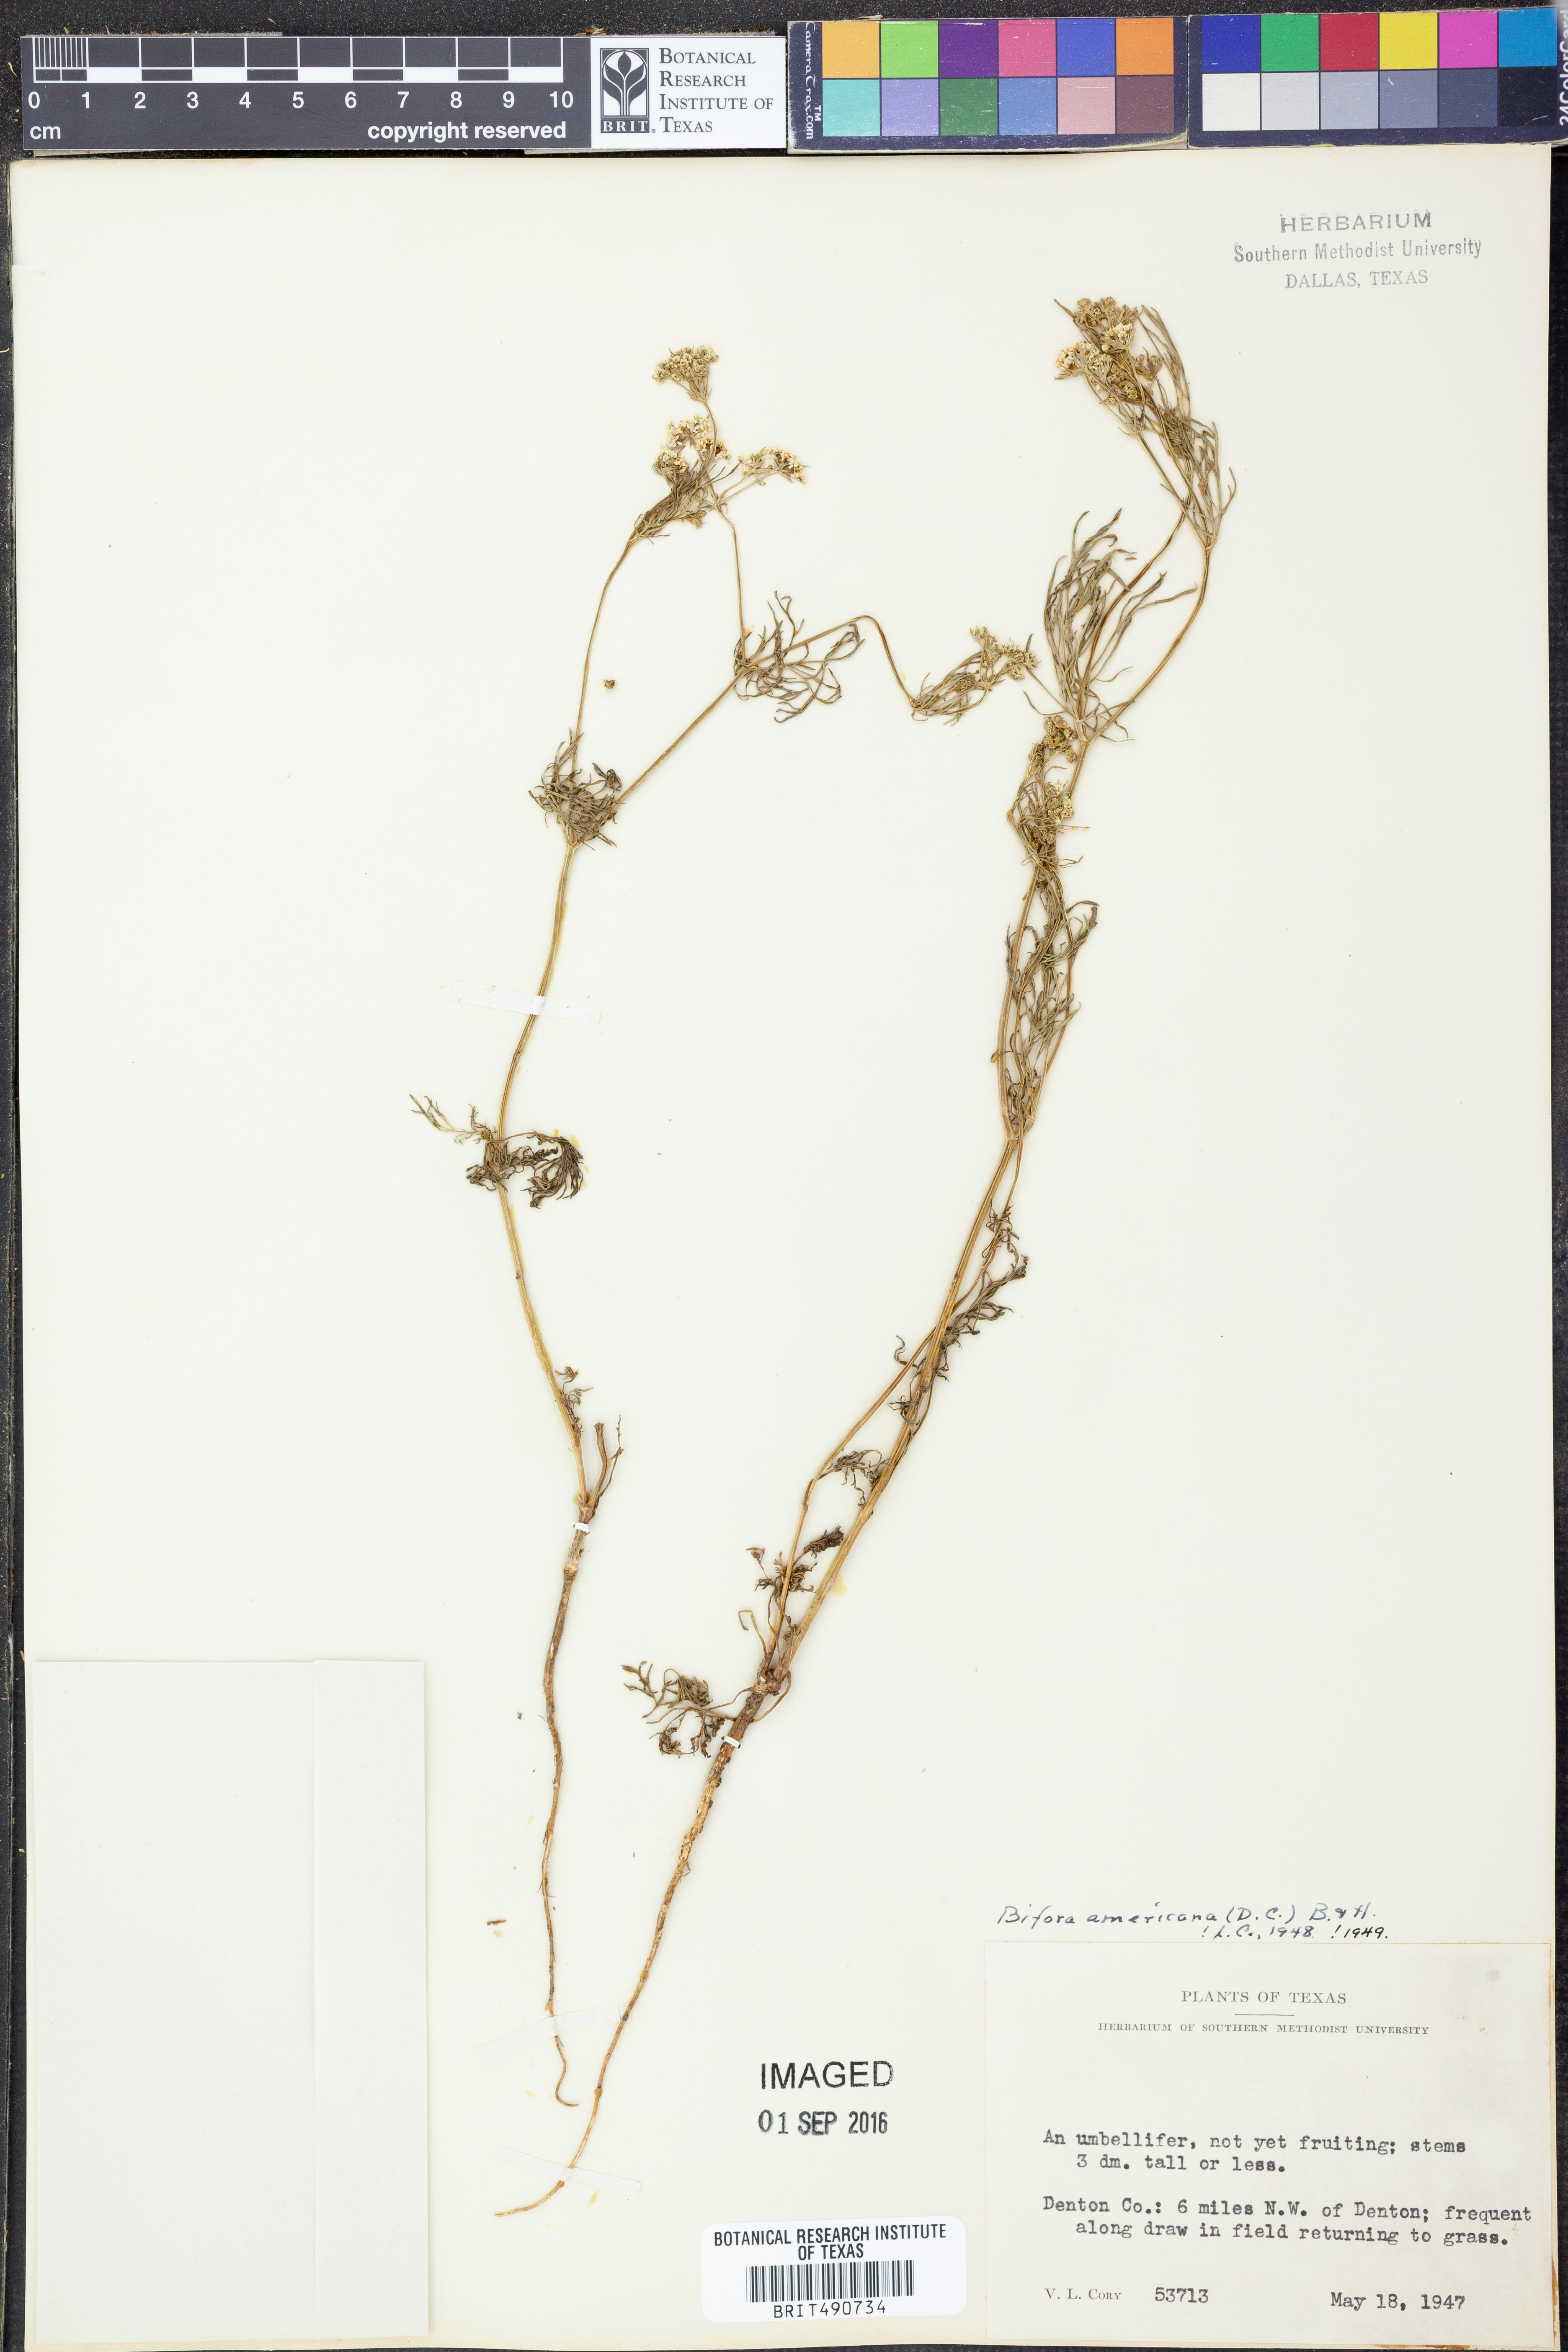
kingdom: Plantae
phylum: Tracheophyta
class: Magnoliopsida
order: Apiales
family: Apiaceae
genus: Atrema
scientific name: Atrema americanum
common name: Prairie-bishop
